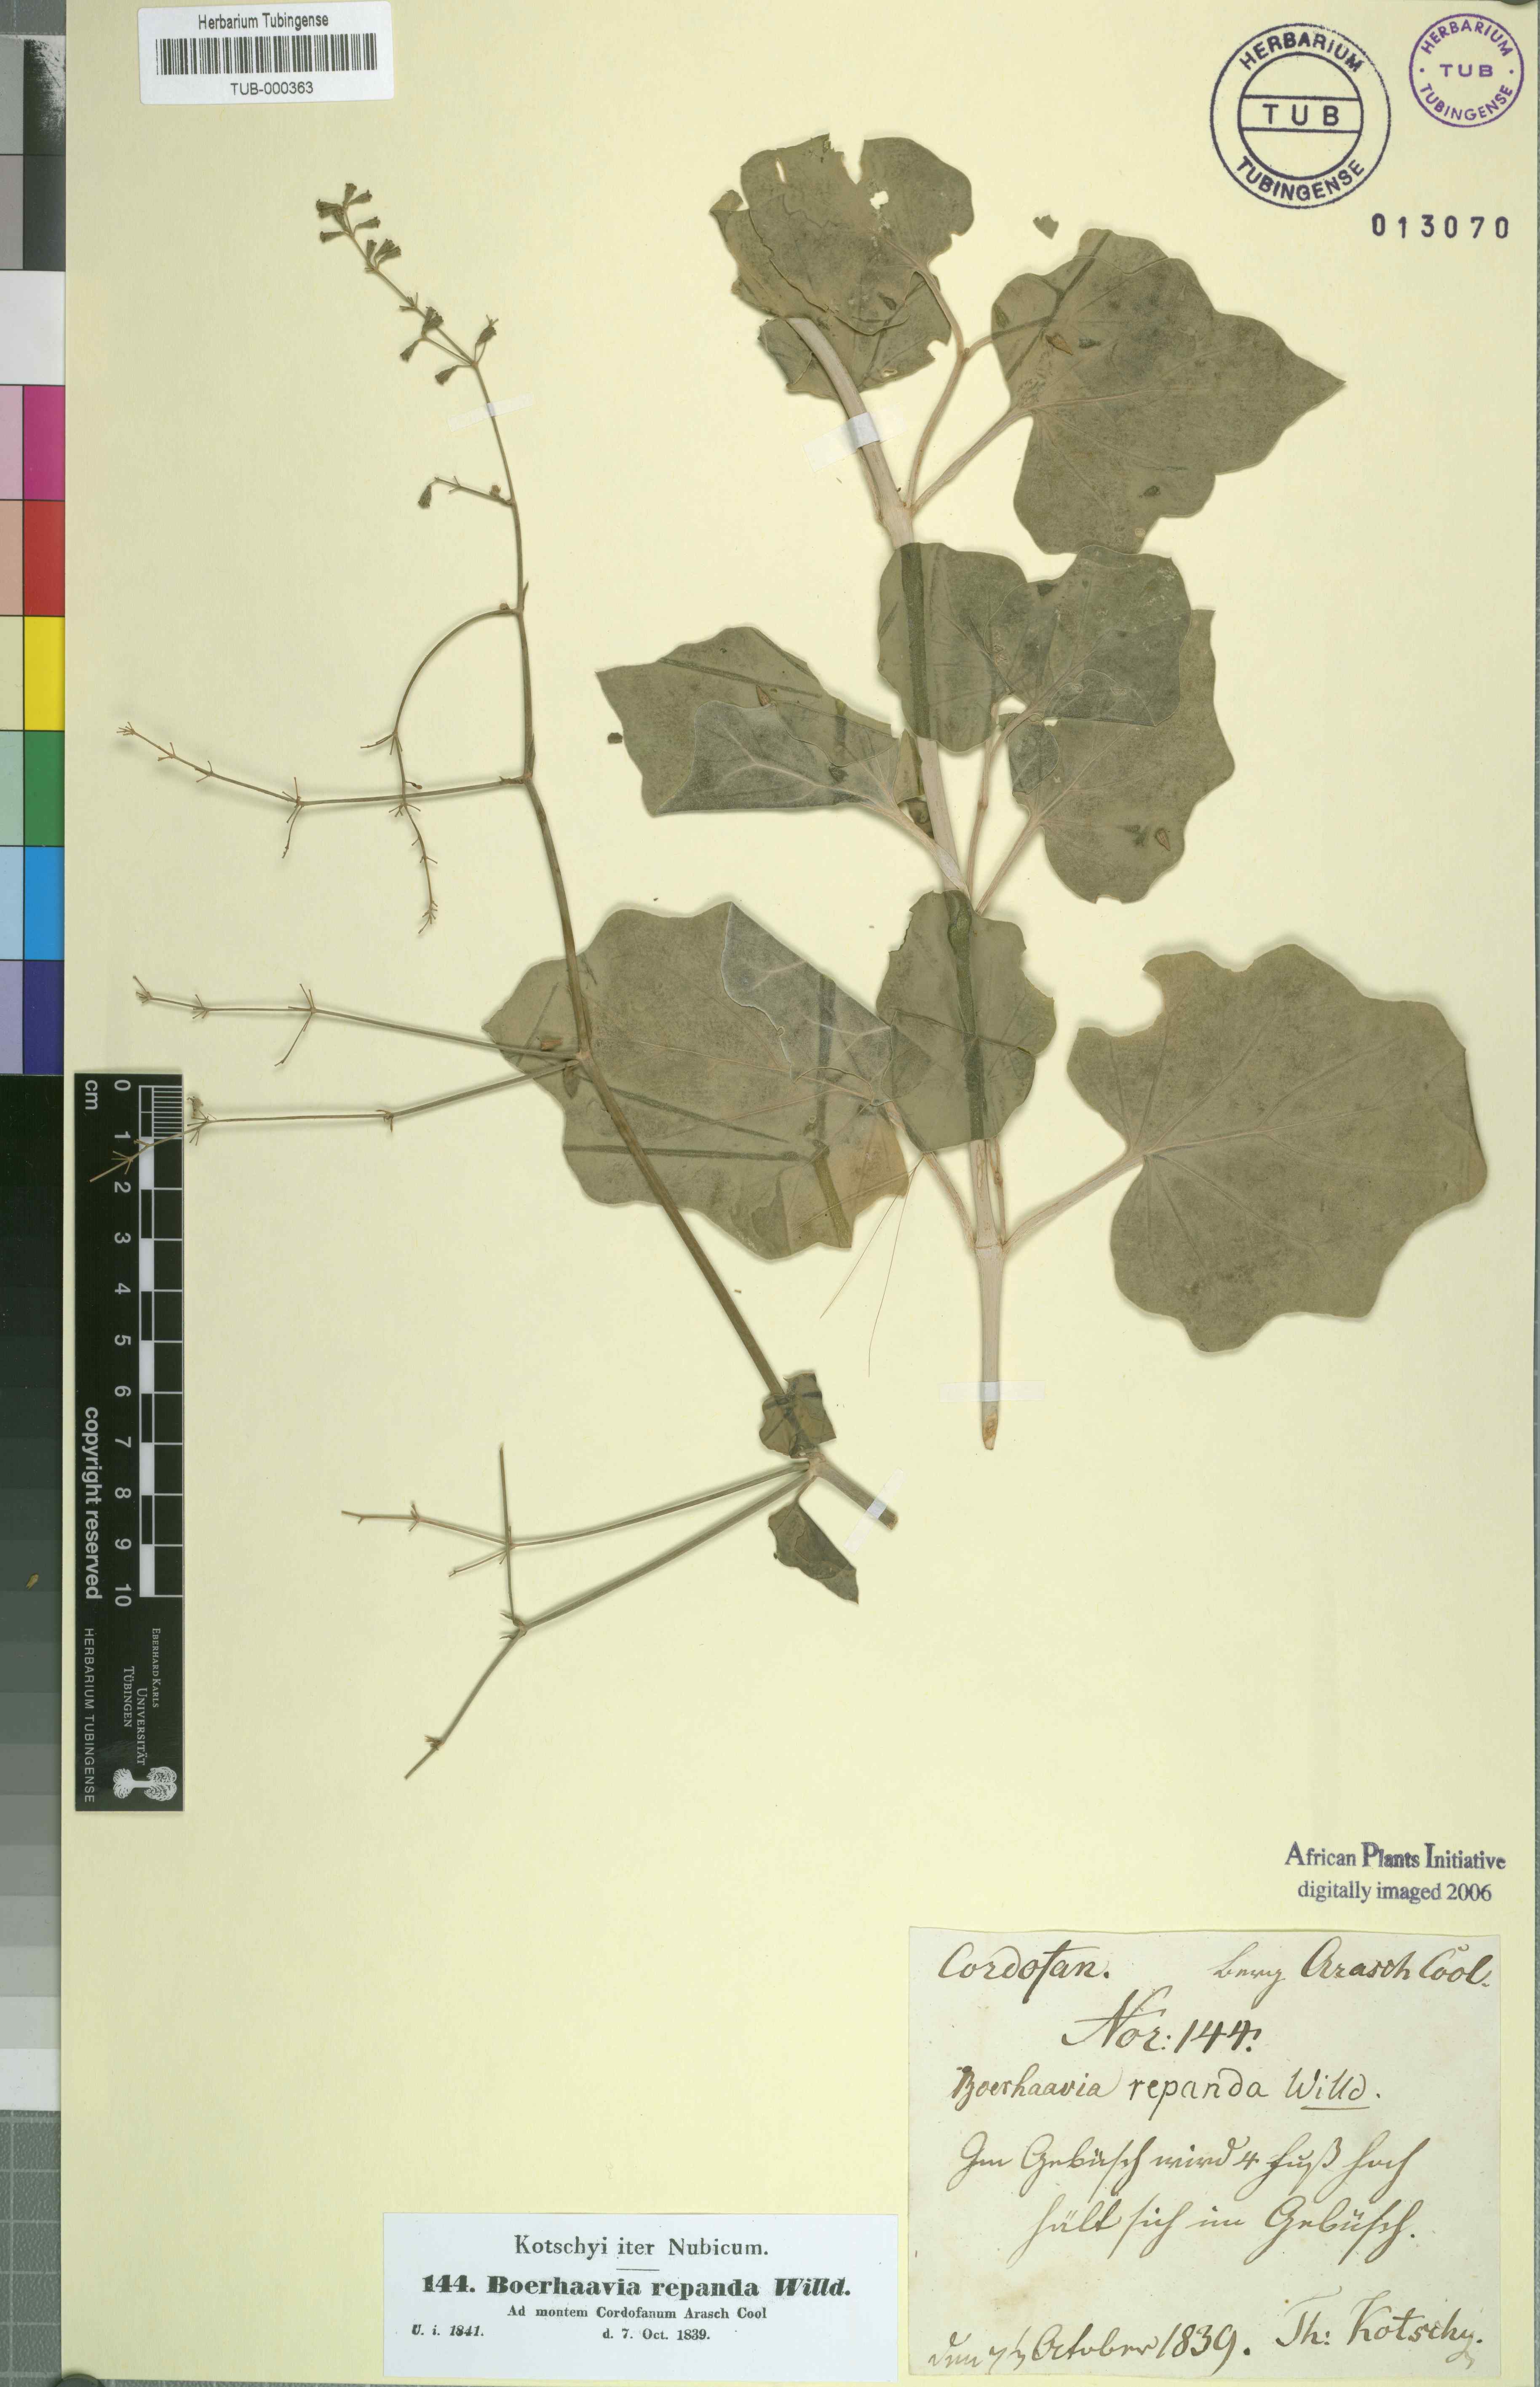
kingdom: Plantae
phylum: Tracheophyta
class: Magnoliopsida
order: Caryophyllales
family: Nyctaginaceae
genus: Commicarpus
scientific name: Commicarpus chinensis
